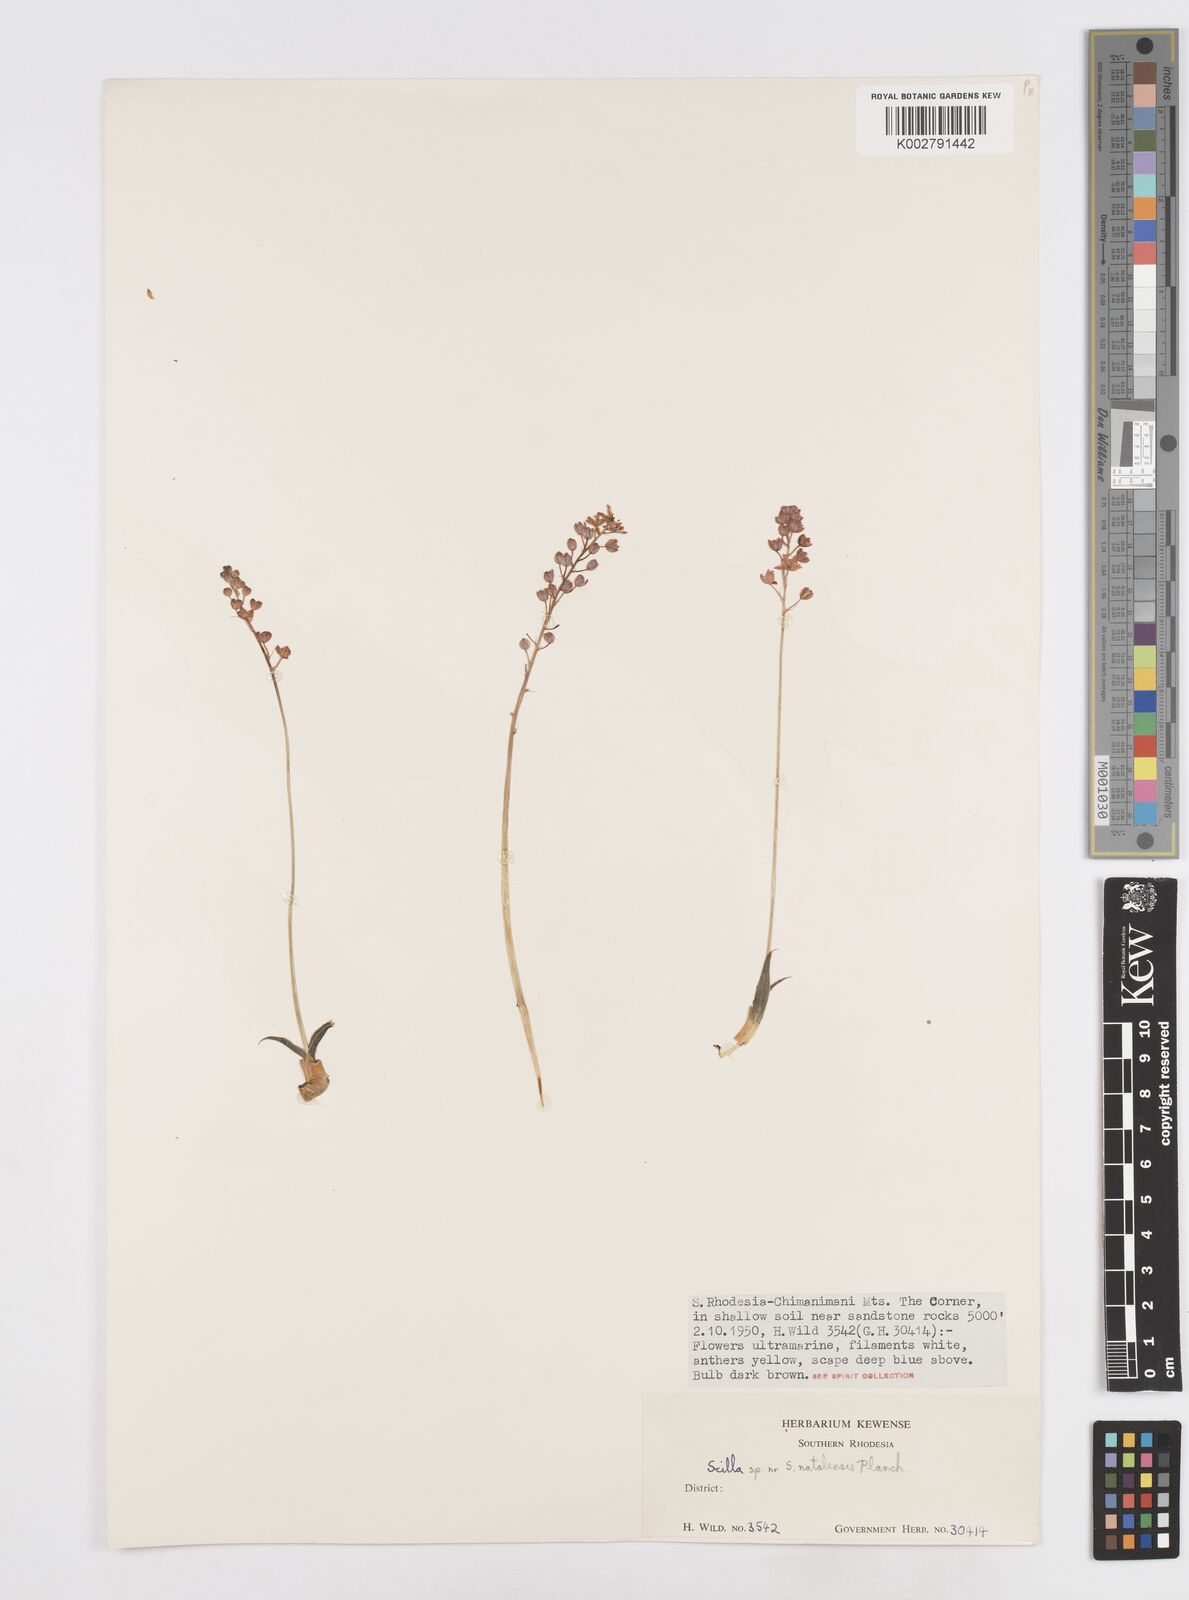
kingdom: Plantae
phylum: Tracheophyta
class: Liliopsida
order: Asparagales
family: Asparagaceae
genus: Merwilla
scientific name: Merwilla plumbea
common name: Blue-squill
